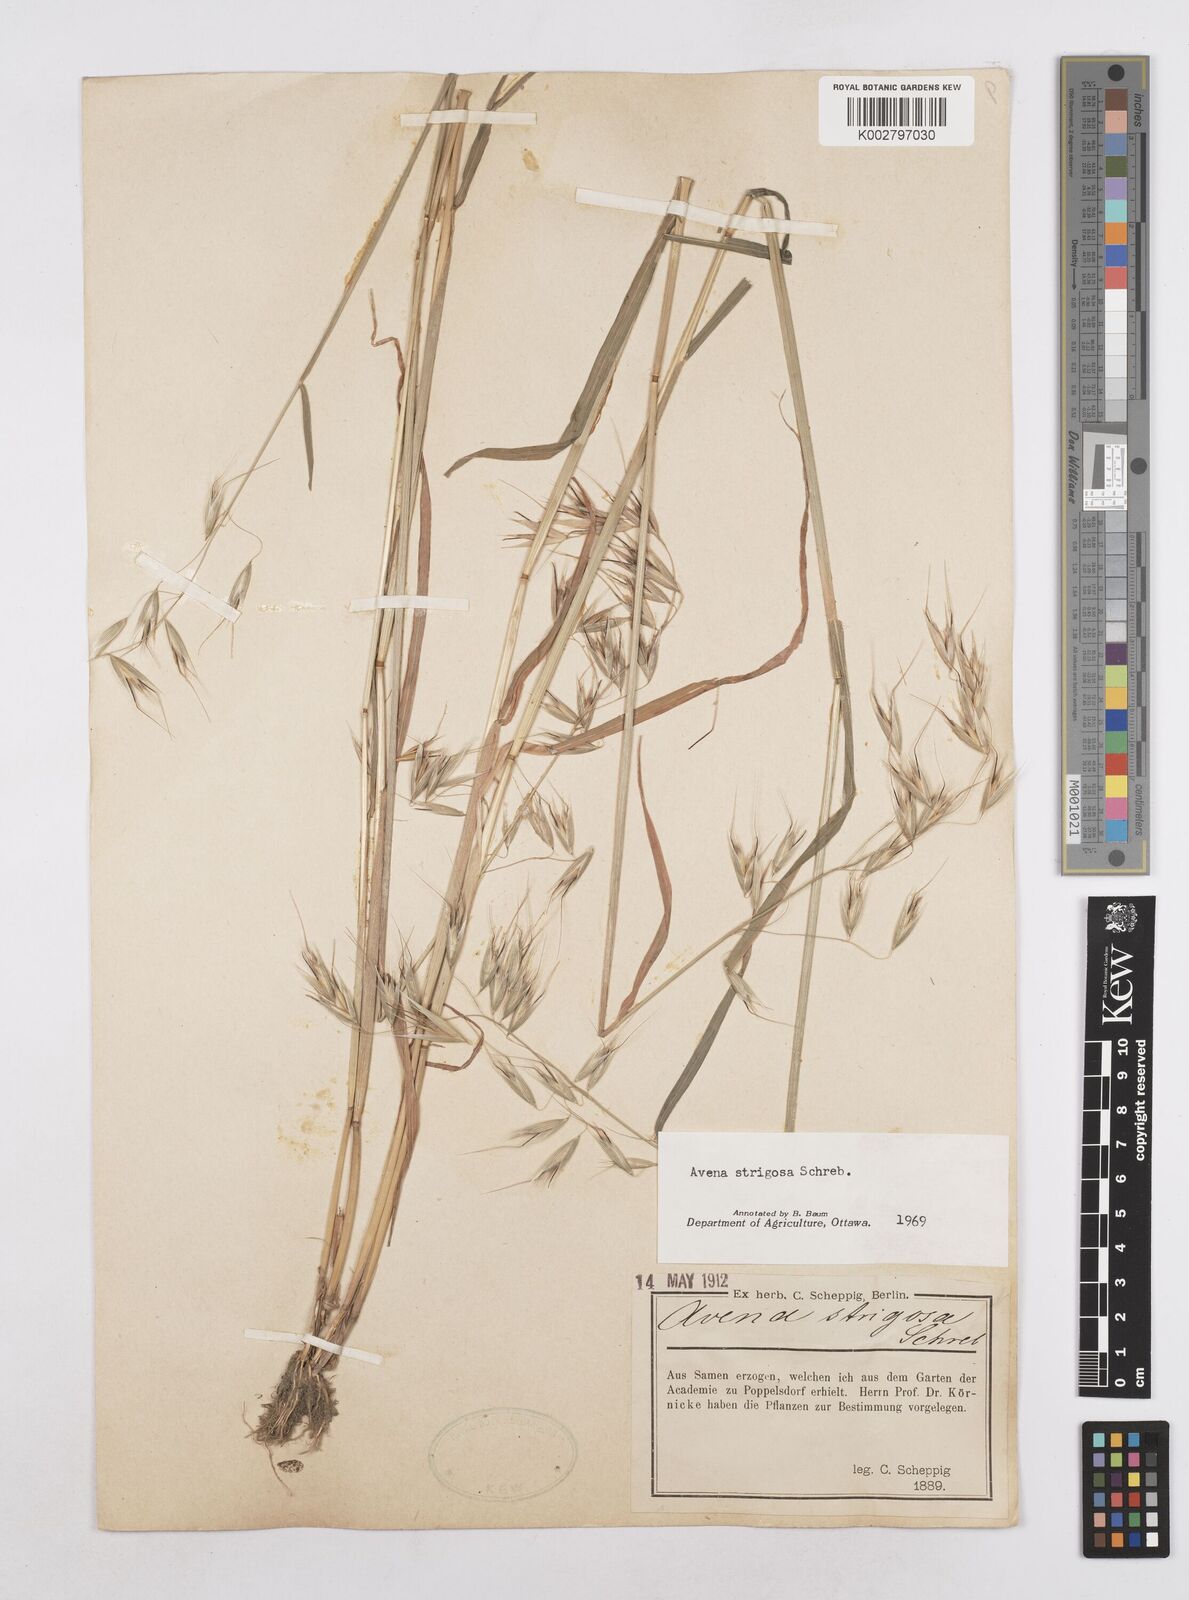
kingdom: Plantae
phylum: Tracheophyta
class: Liliopsida
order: Poales
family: Poaceae
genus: Avena
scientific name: Avena strigosa
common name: Bristle oat
